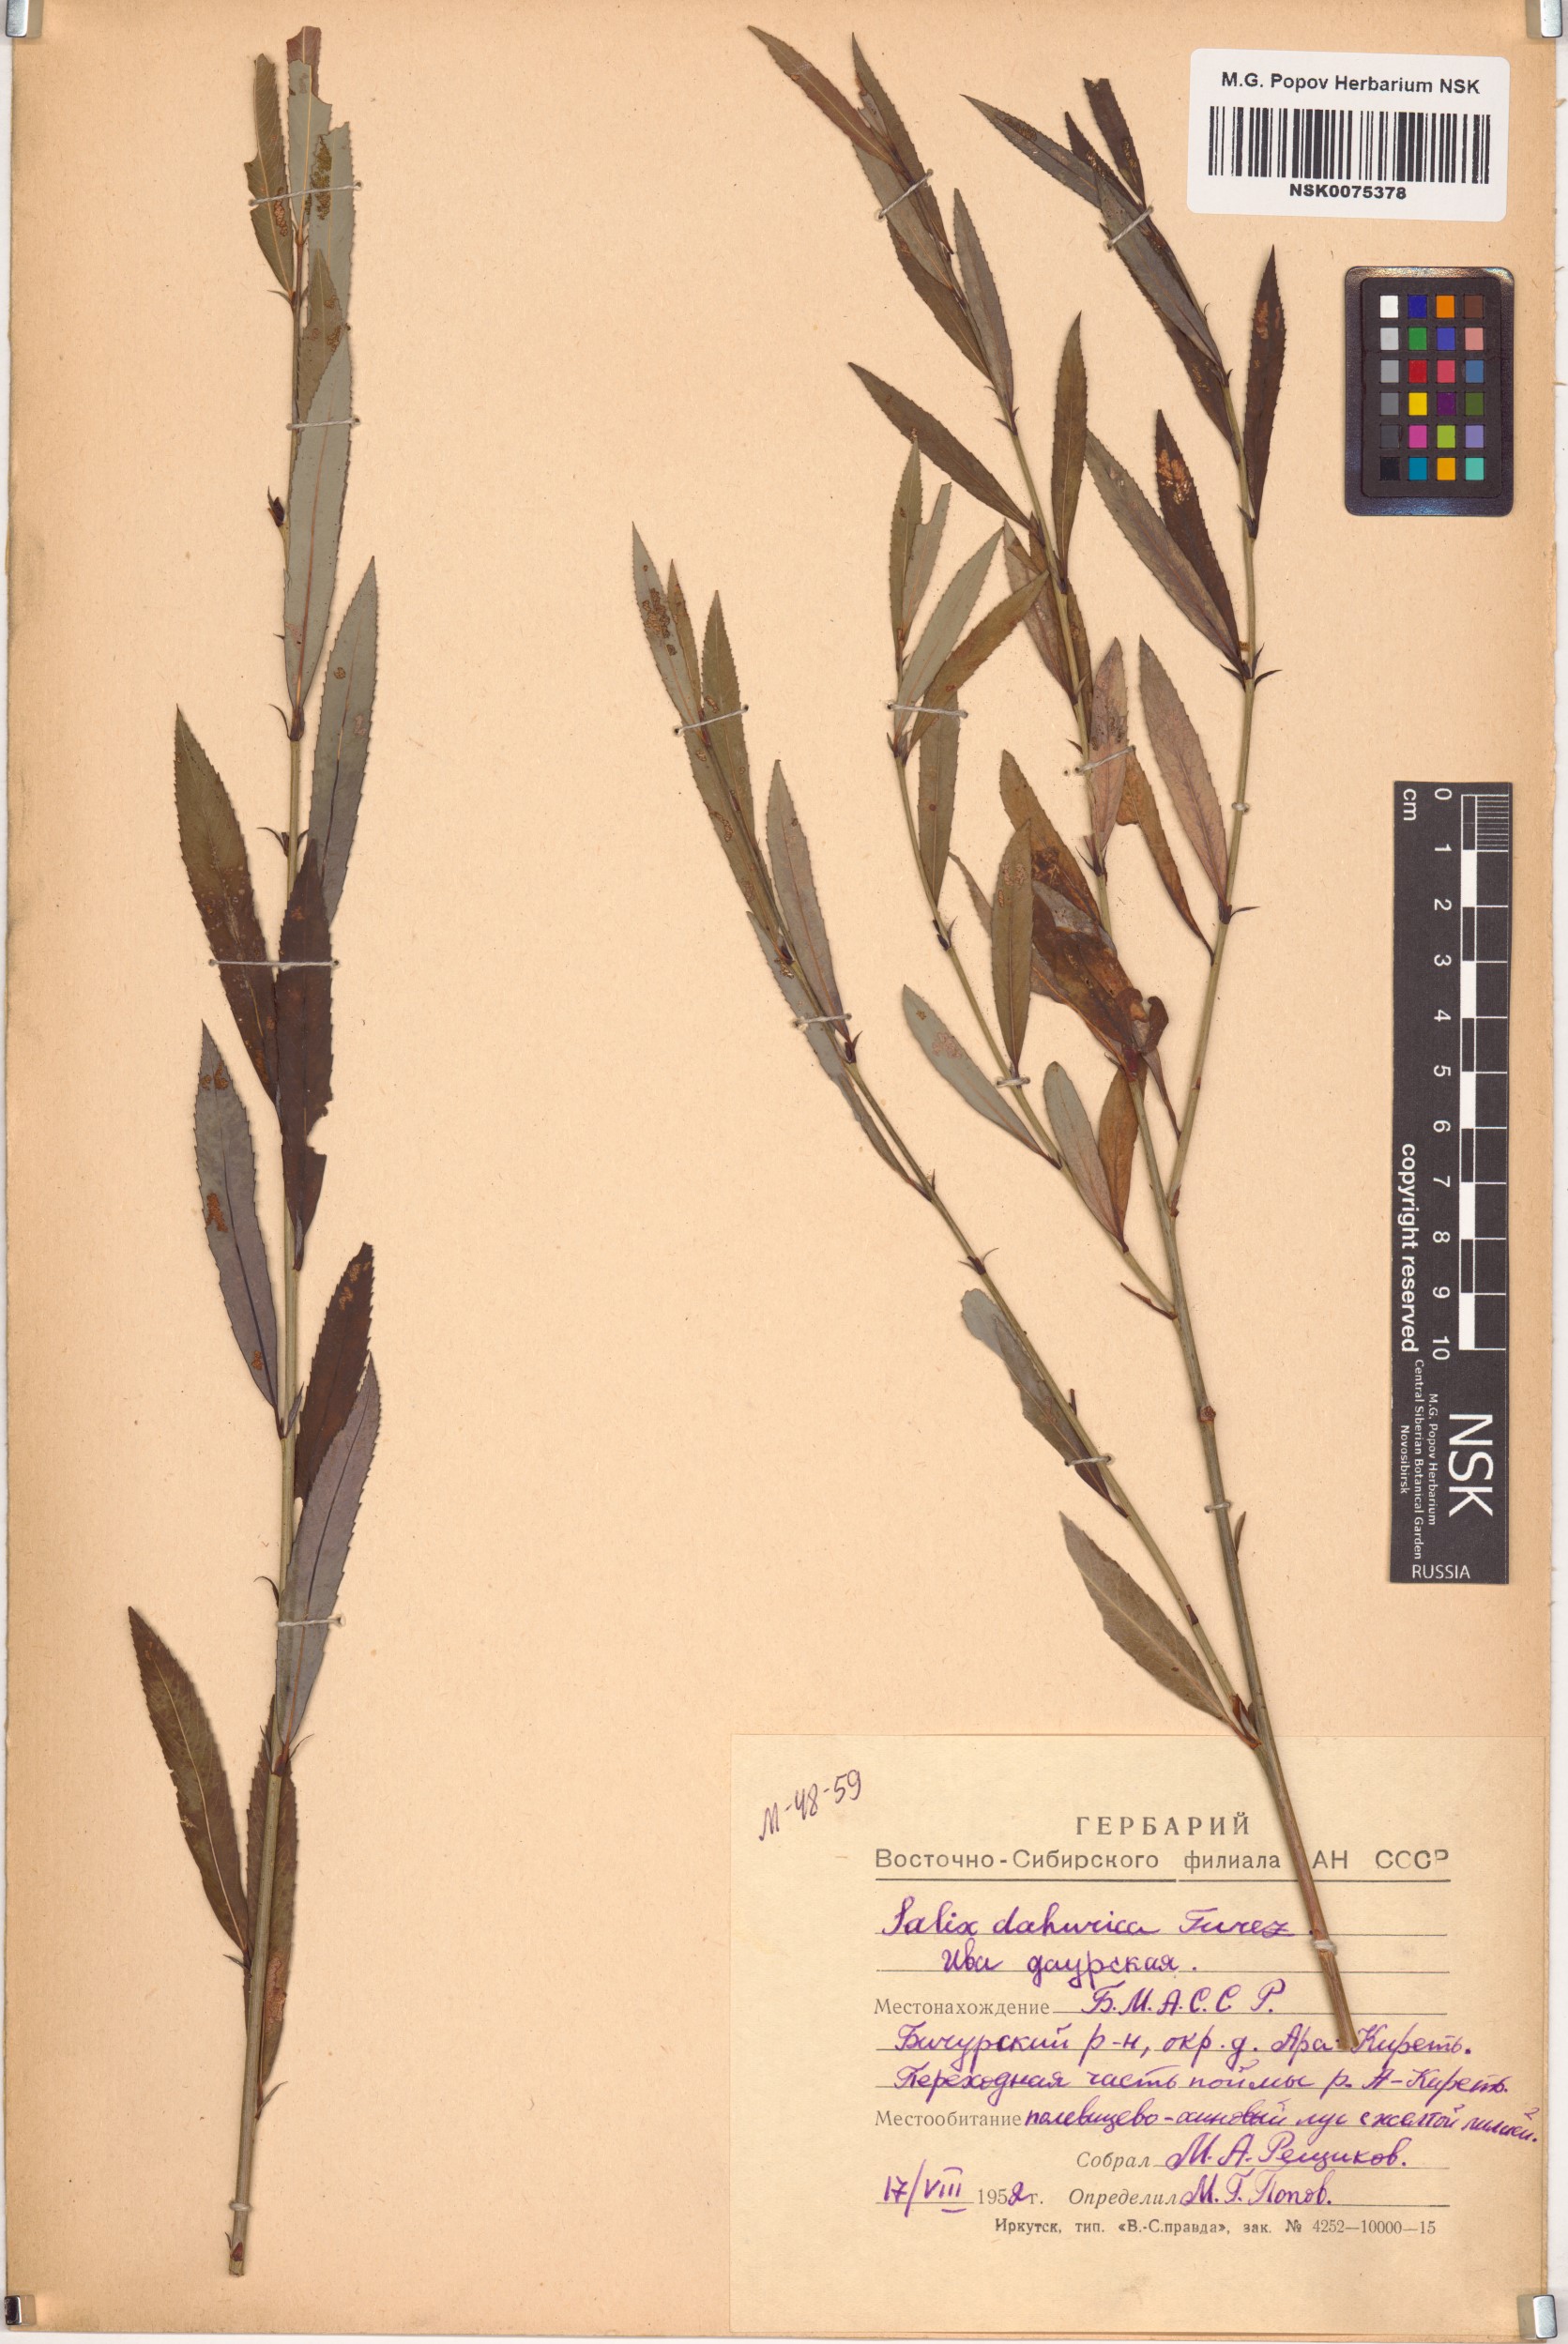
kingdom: Plantae
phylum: Tracheophyta
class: Magnoliopsida
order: Malpighiales
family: Salicaceae
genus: Salix
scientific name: Salix
